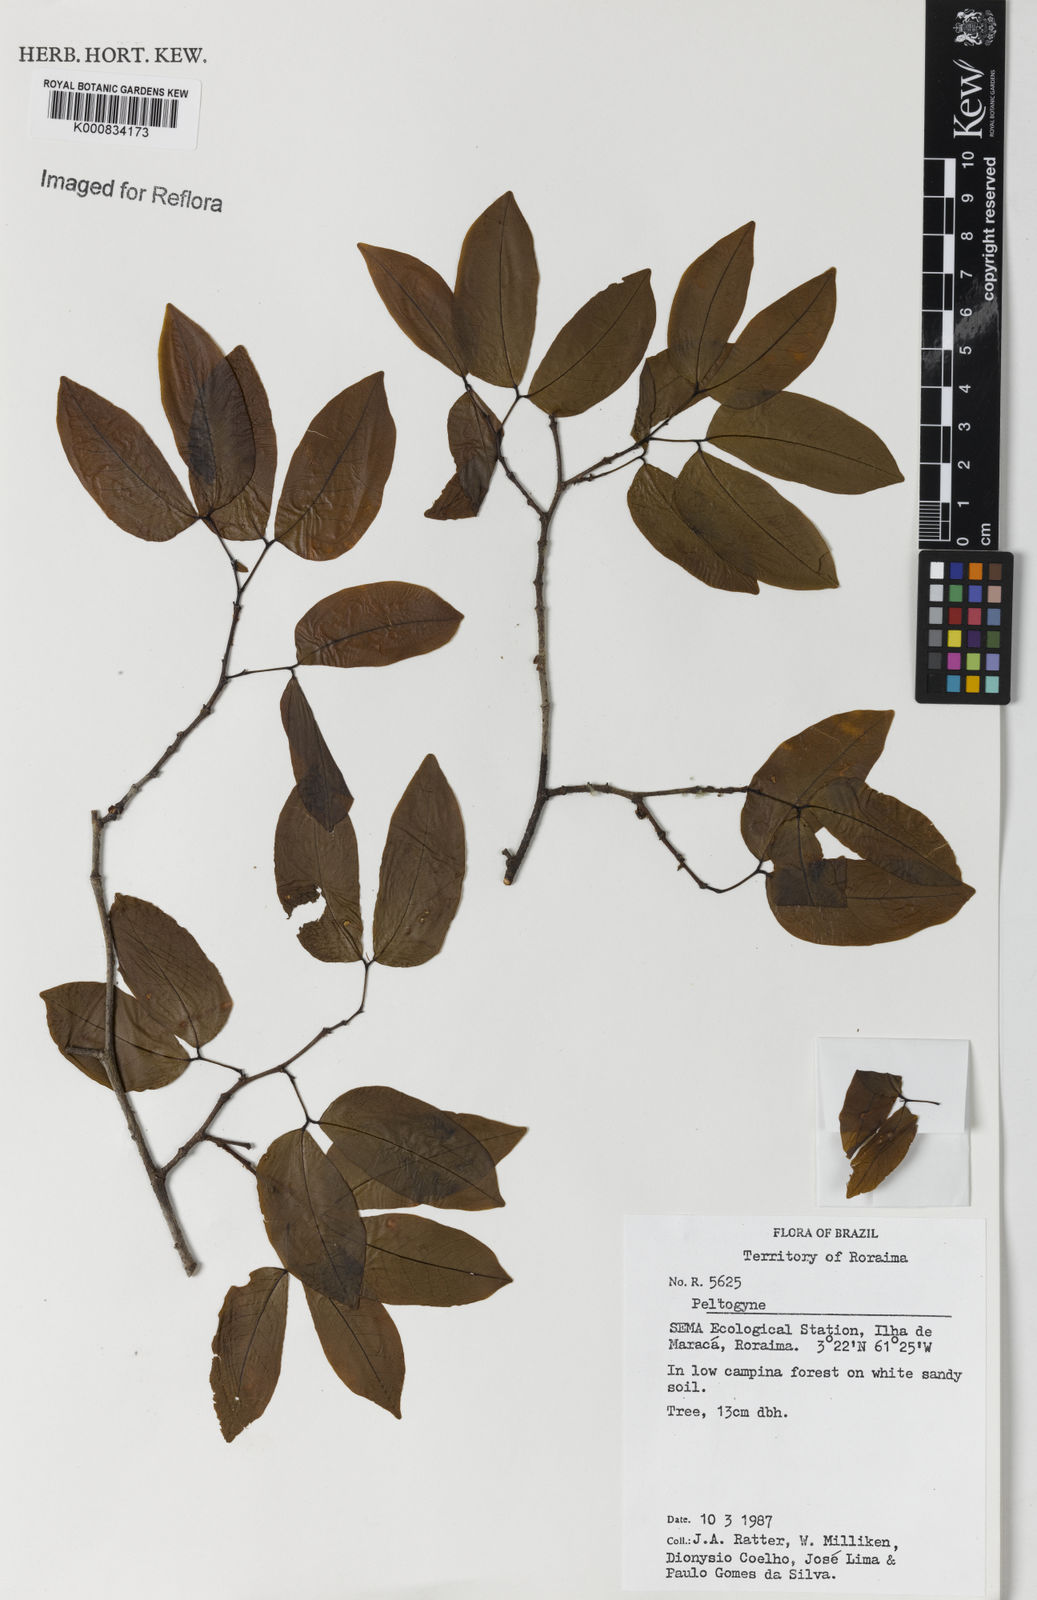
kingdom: Plantae
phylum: Tracheophyta
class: Magnoliopsida
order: Fabales
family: Fabaceae
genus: Peltogyne
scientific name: Peltogyne
